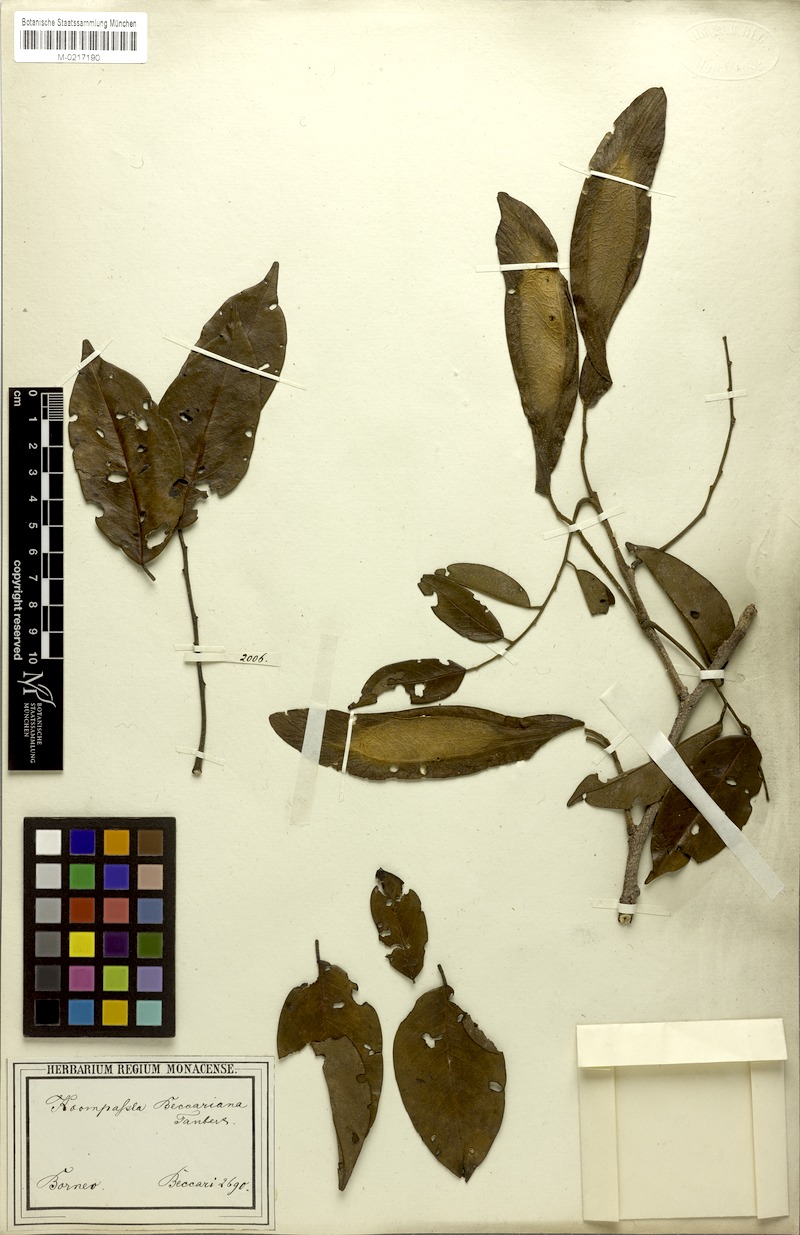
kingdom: Plantae
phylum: Tracheophyta
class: Magnoliopsida
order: Fabales
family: Fabaceae
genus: Koompassia
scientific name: Koompassia malaccensis
